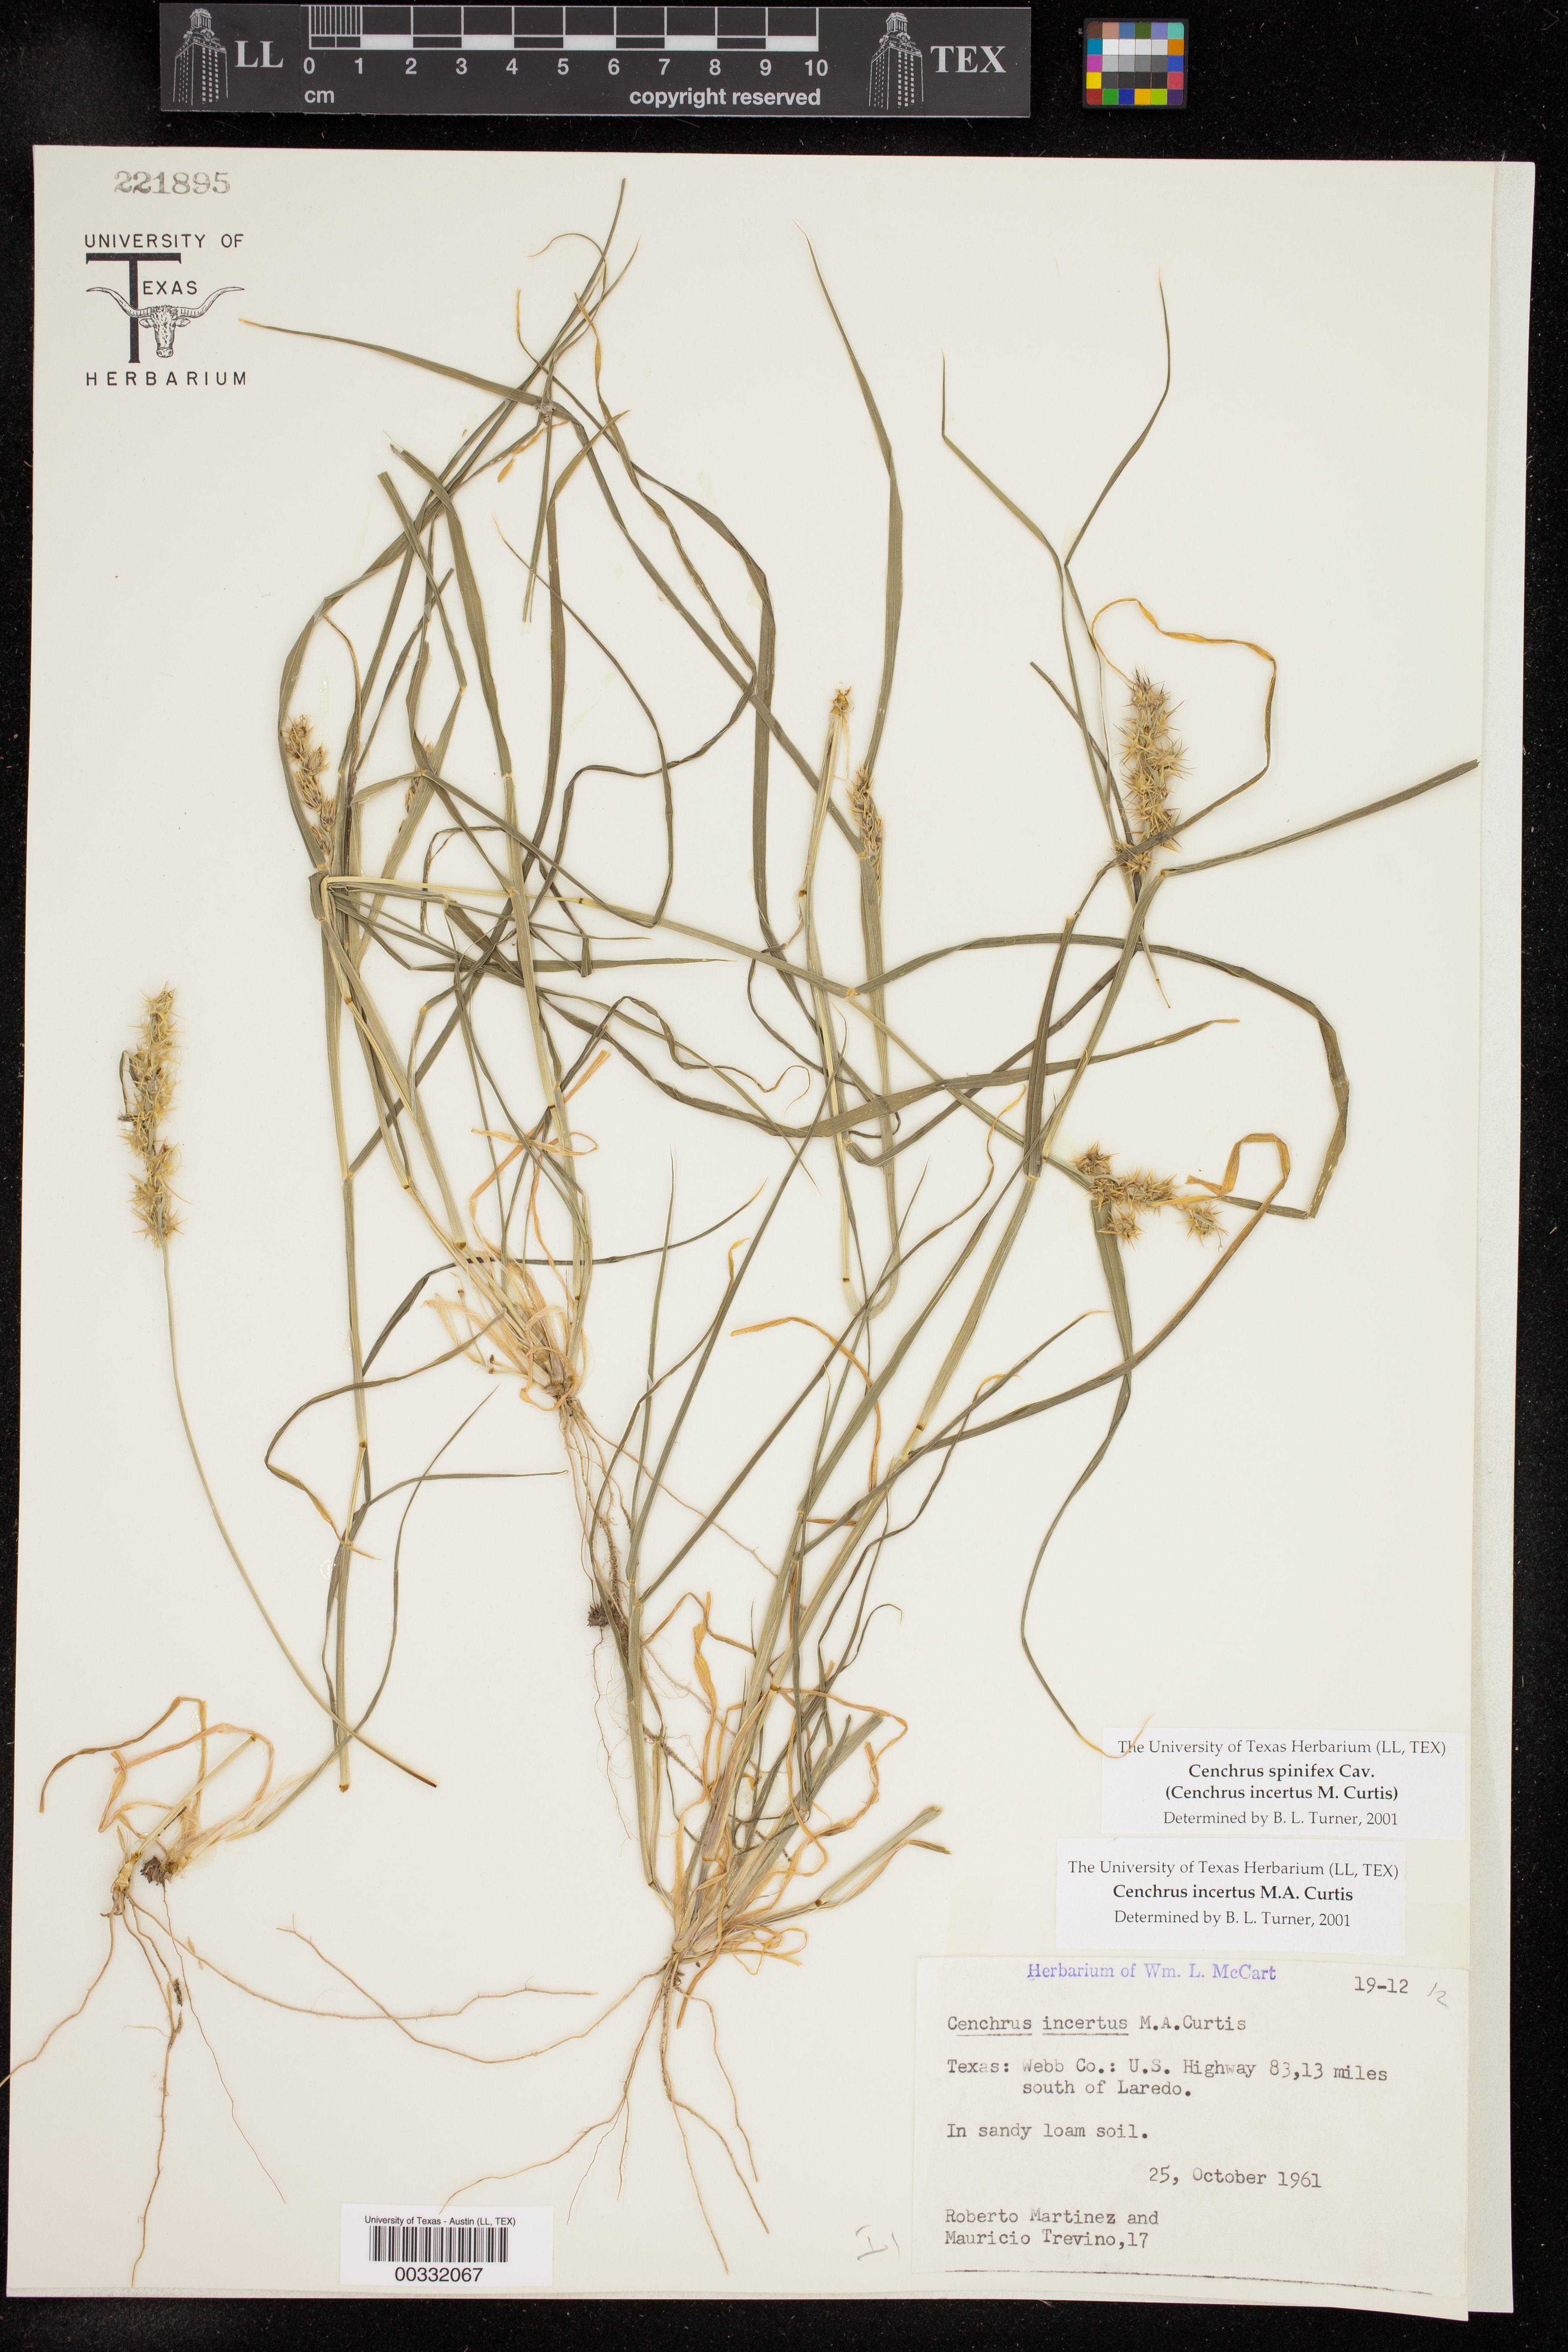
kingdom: Plantae
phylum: Tracheophyta
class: Liliopsida
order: Poales
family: Poaceae
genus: Cenchrus
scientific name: Cenchrus spinifex
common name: Coast sandbur
